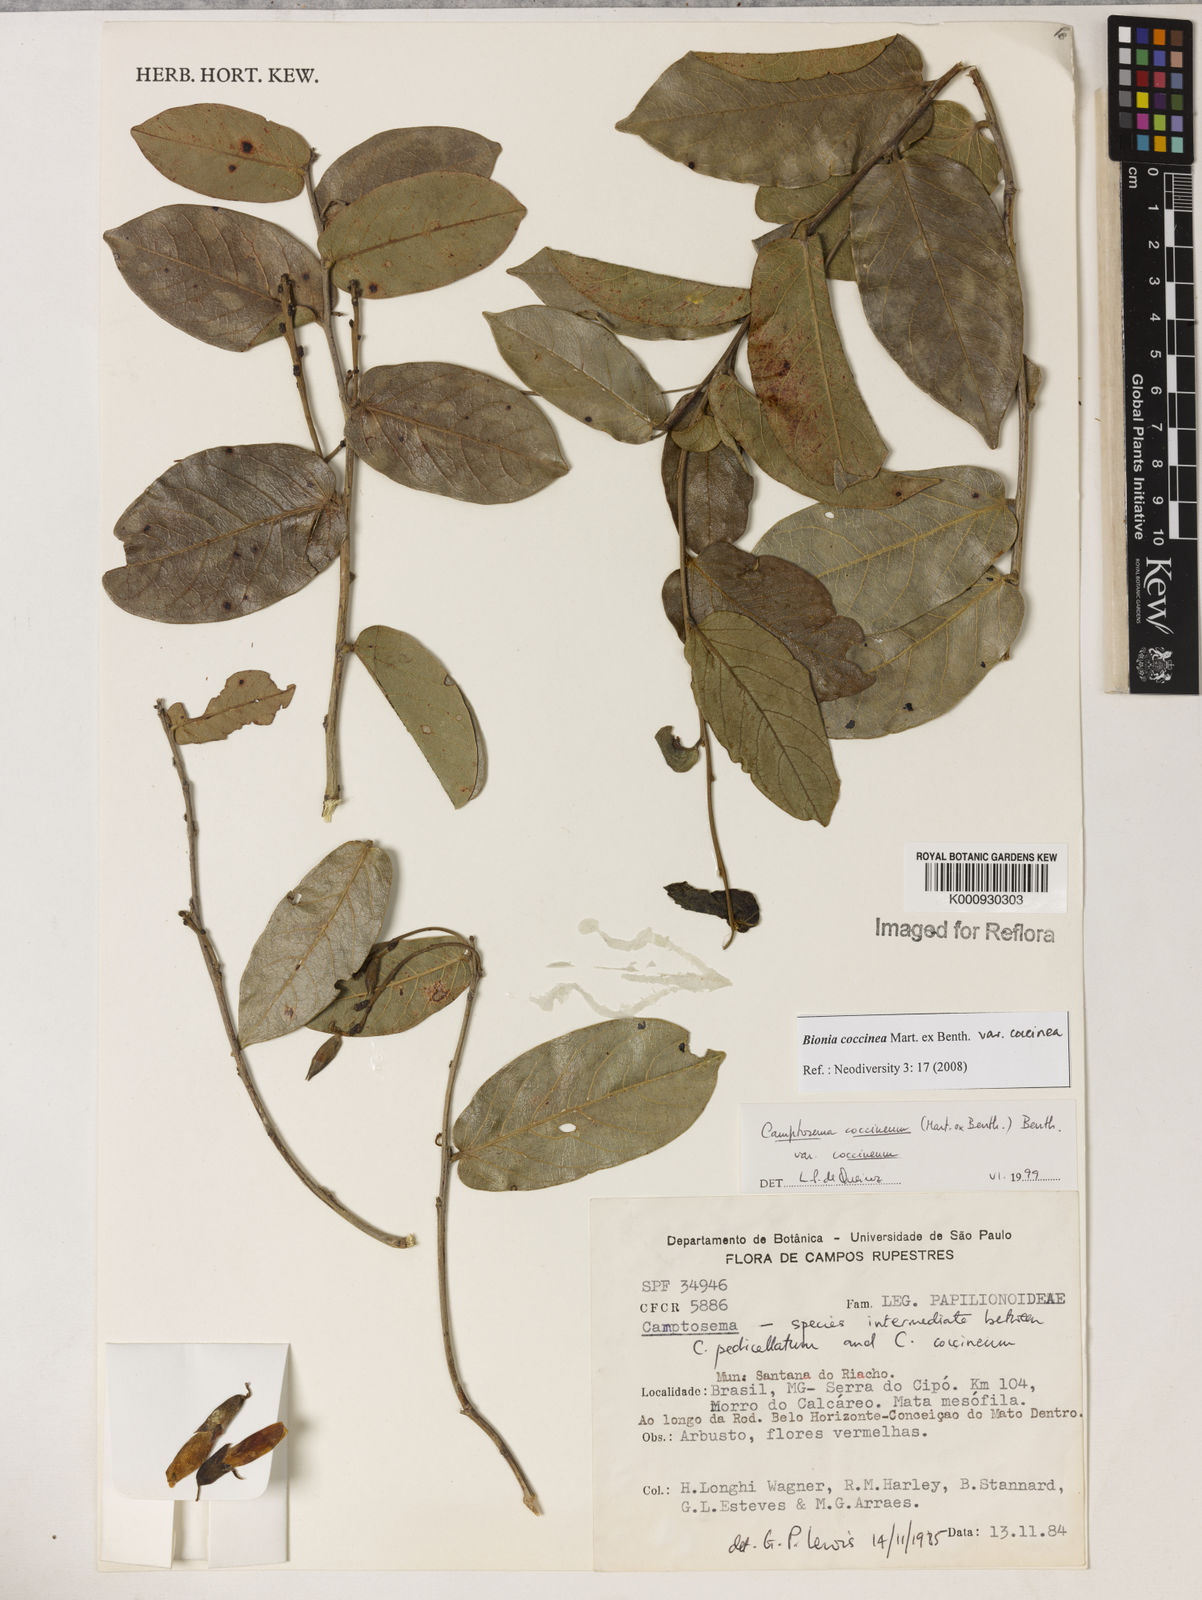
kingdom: Plantae
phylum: Tracheophyta
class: Magnoliopsida
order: Fabales
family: Fabaceae
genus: Camptosema
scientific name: Camptosema coccineum
